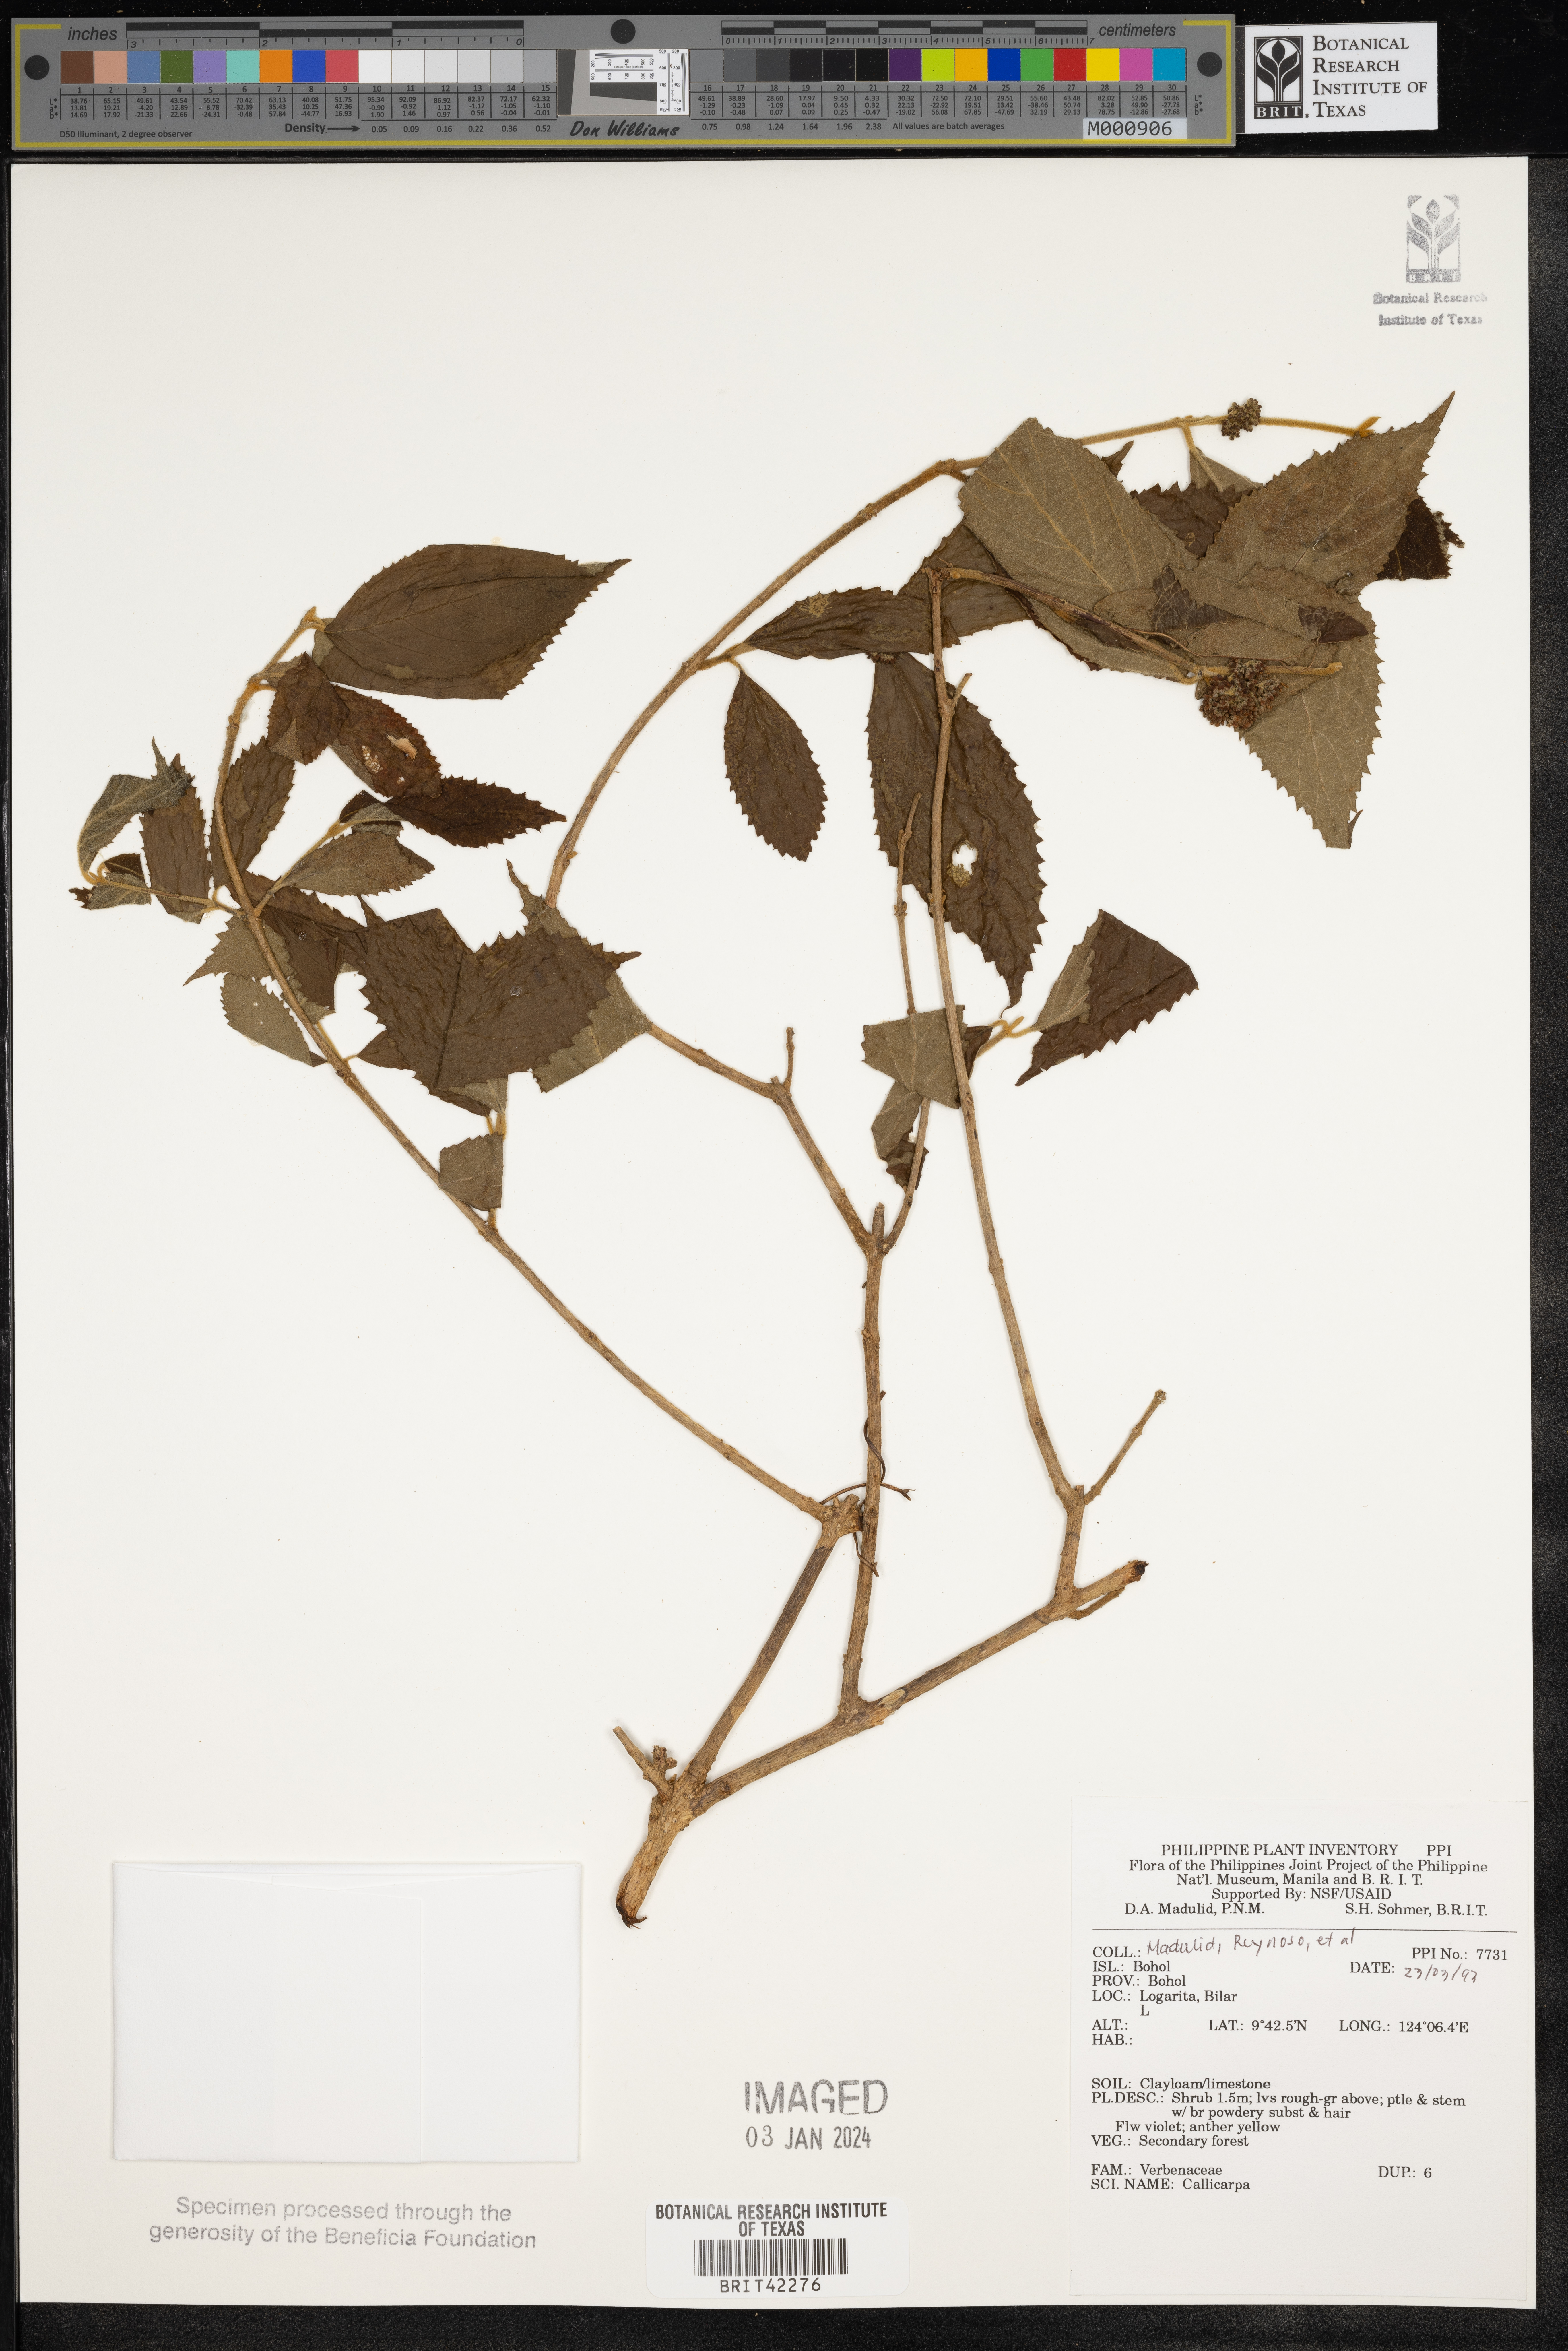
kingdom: Plantae
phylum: Tracheophyta
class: Magnoliopsida
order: Lamiales
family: Lamiaceae
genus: Callicarpa
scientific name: Callicarpa
